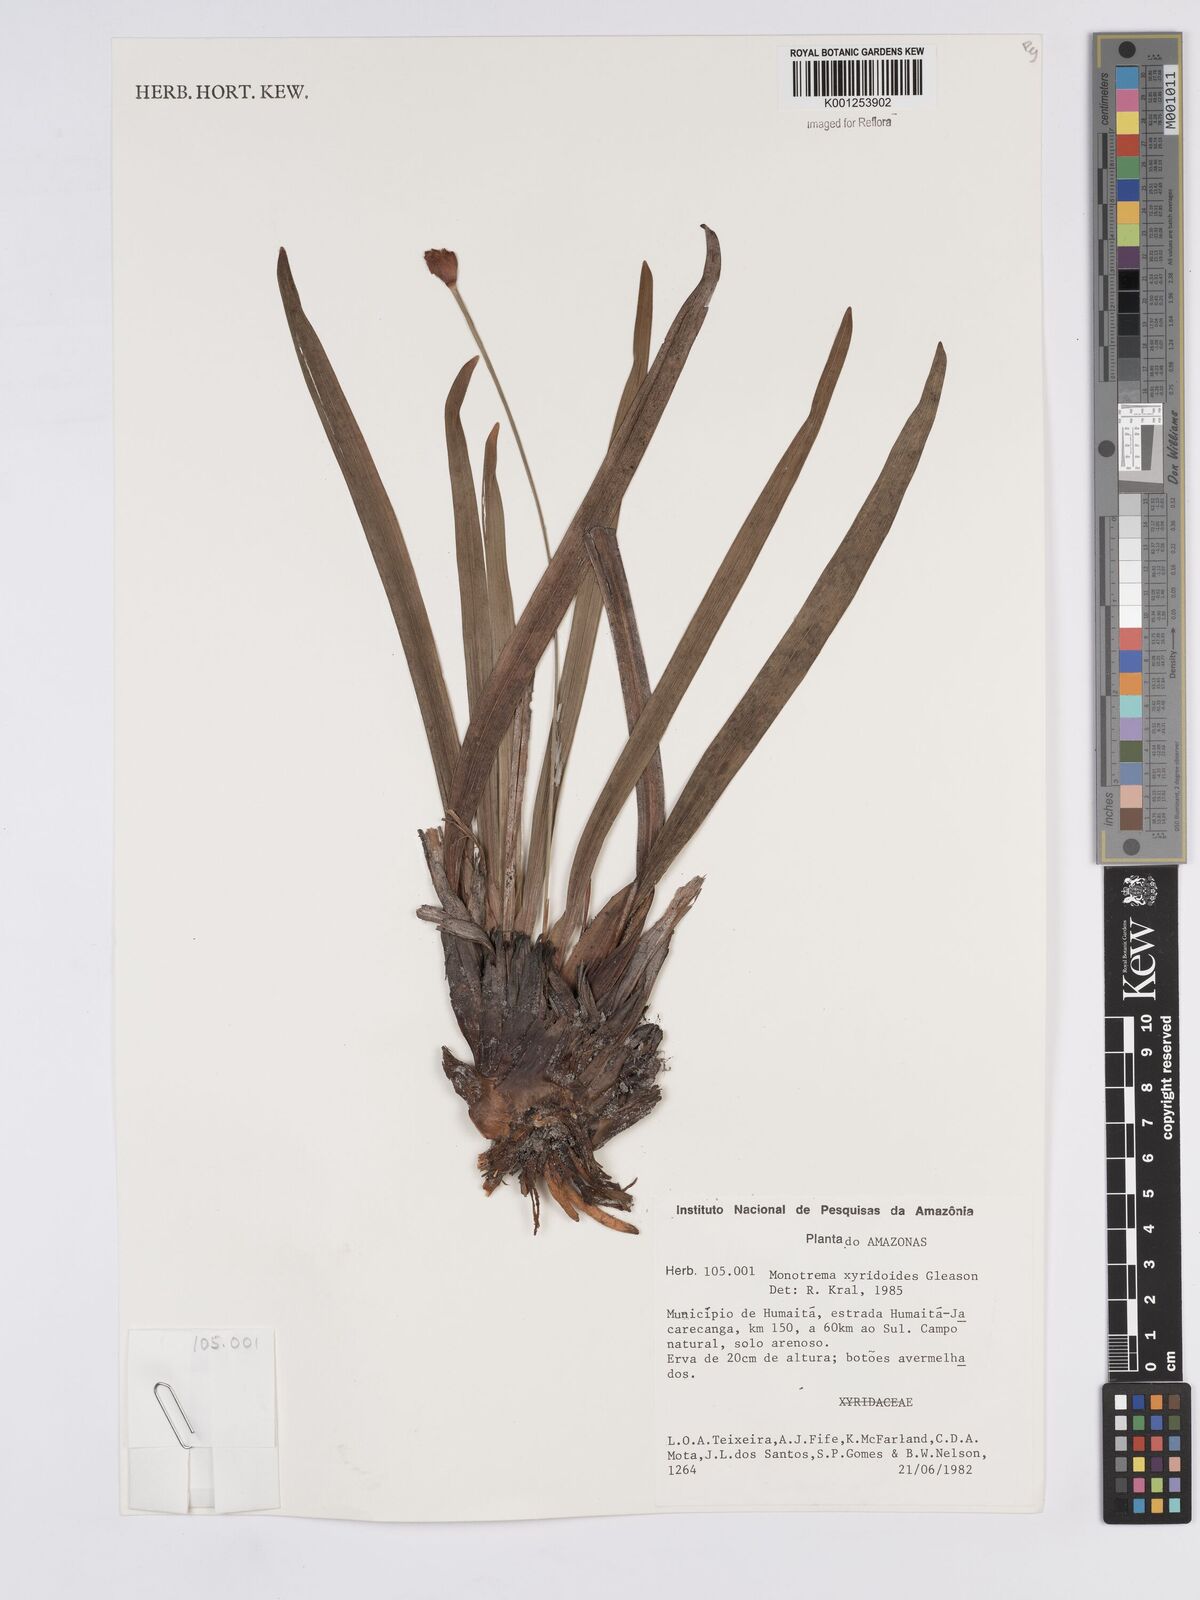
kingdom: Plantae
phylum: Tracheophyta
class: Liliopsida
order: Poales
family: Rapateaceae
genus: Monotrema
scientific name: Monotrema xyridoides
